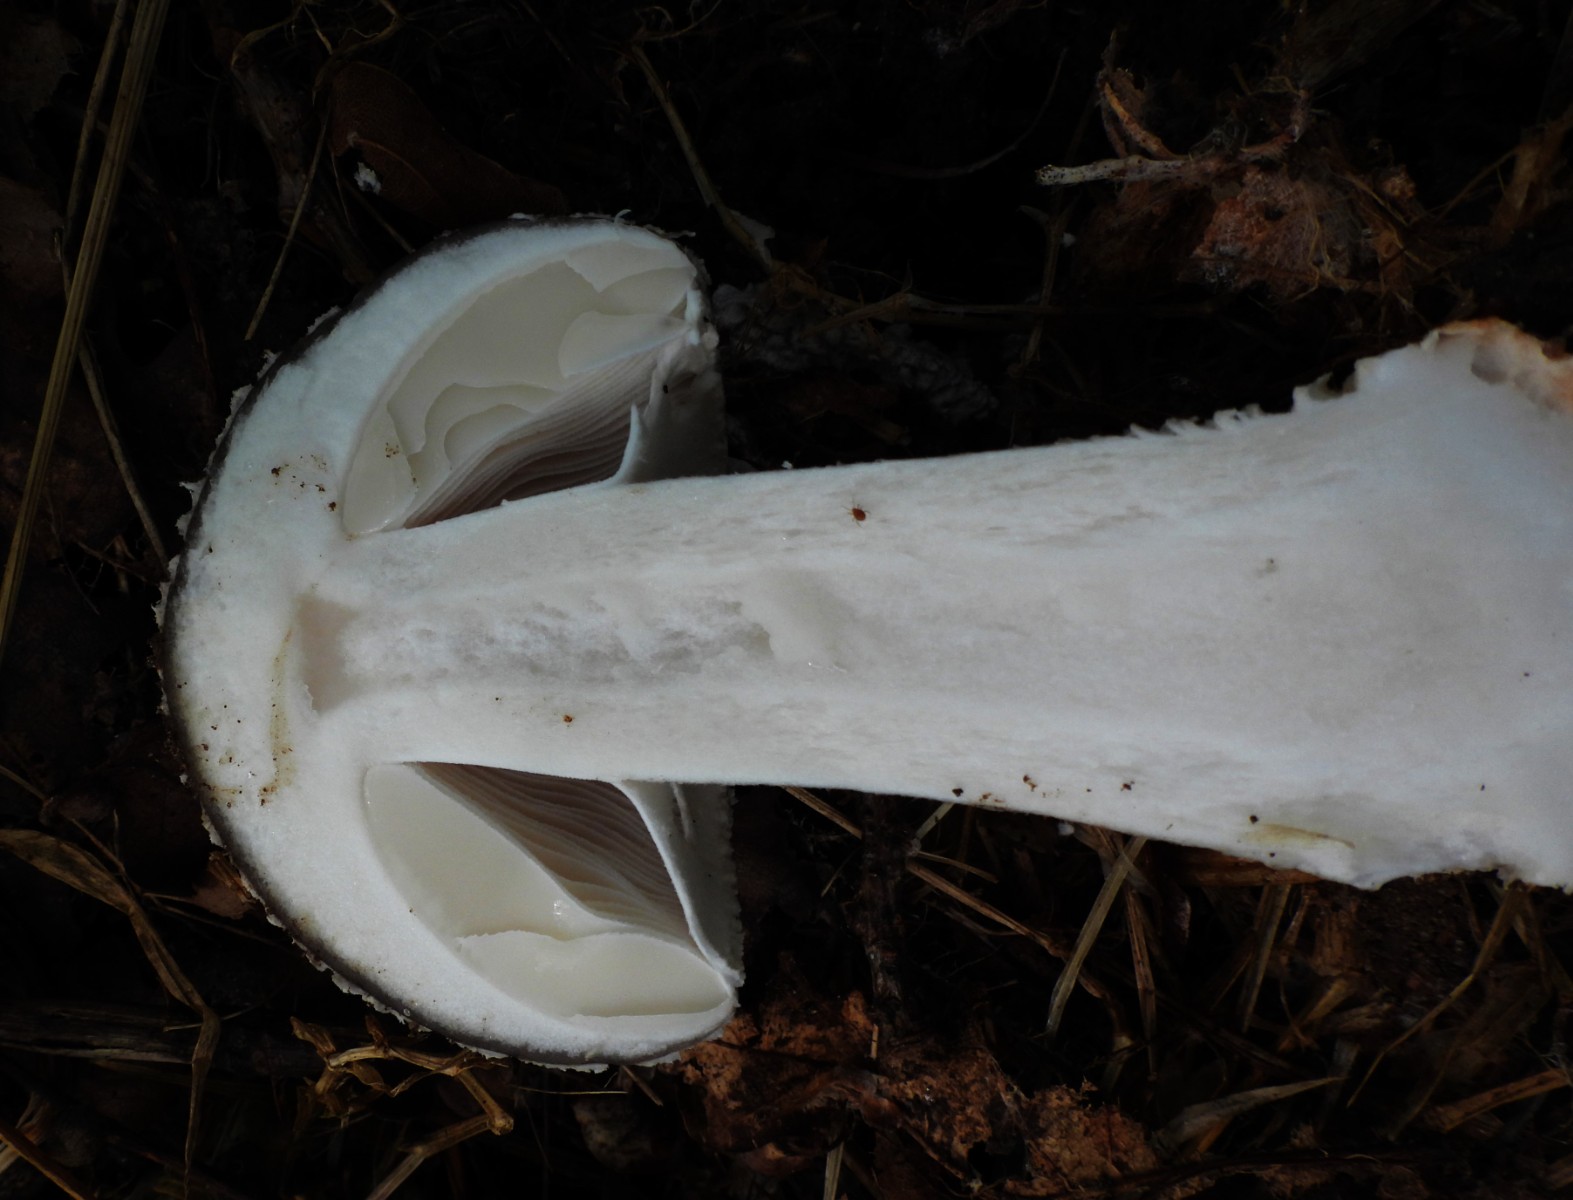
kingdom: Fungi
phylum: Basidiomycota
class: Agaricomycetes
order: Agaricales
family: Amanitaceae
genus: Amanita
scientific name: Amanita
